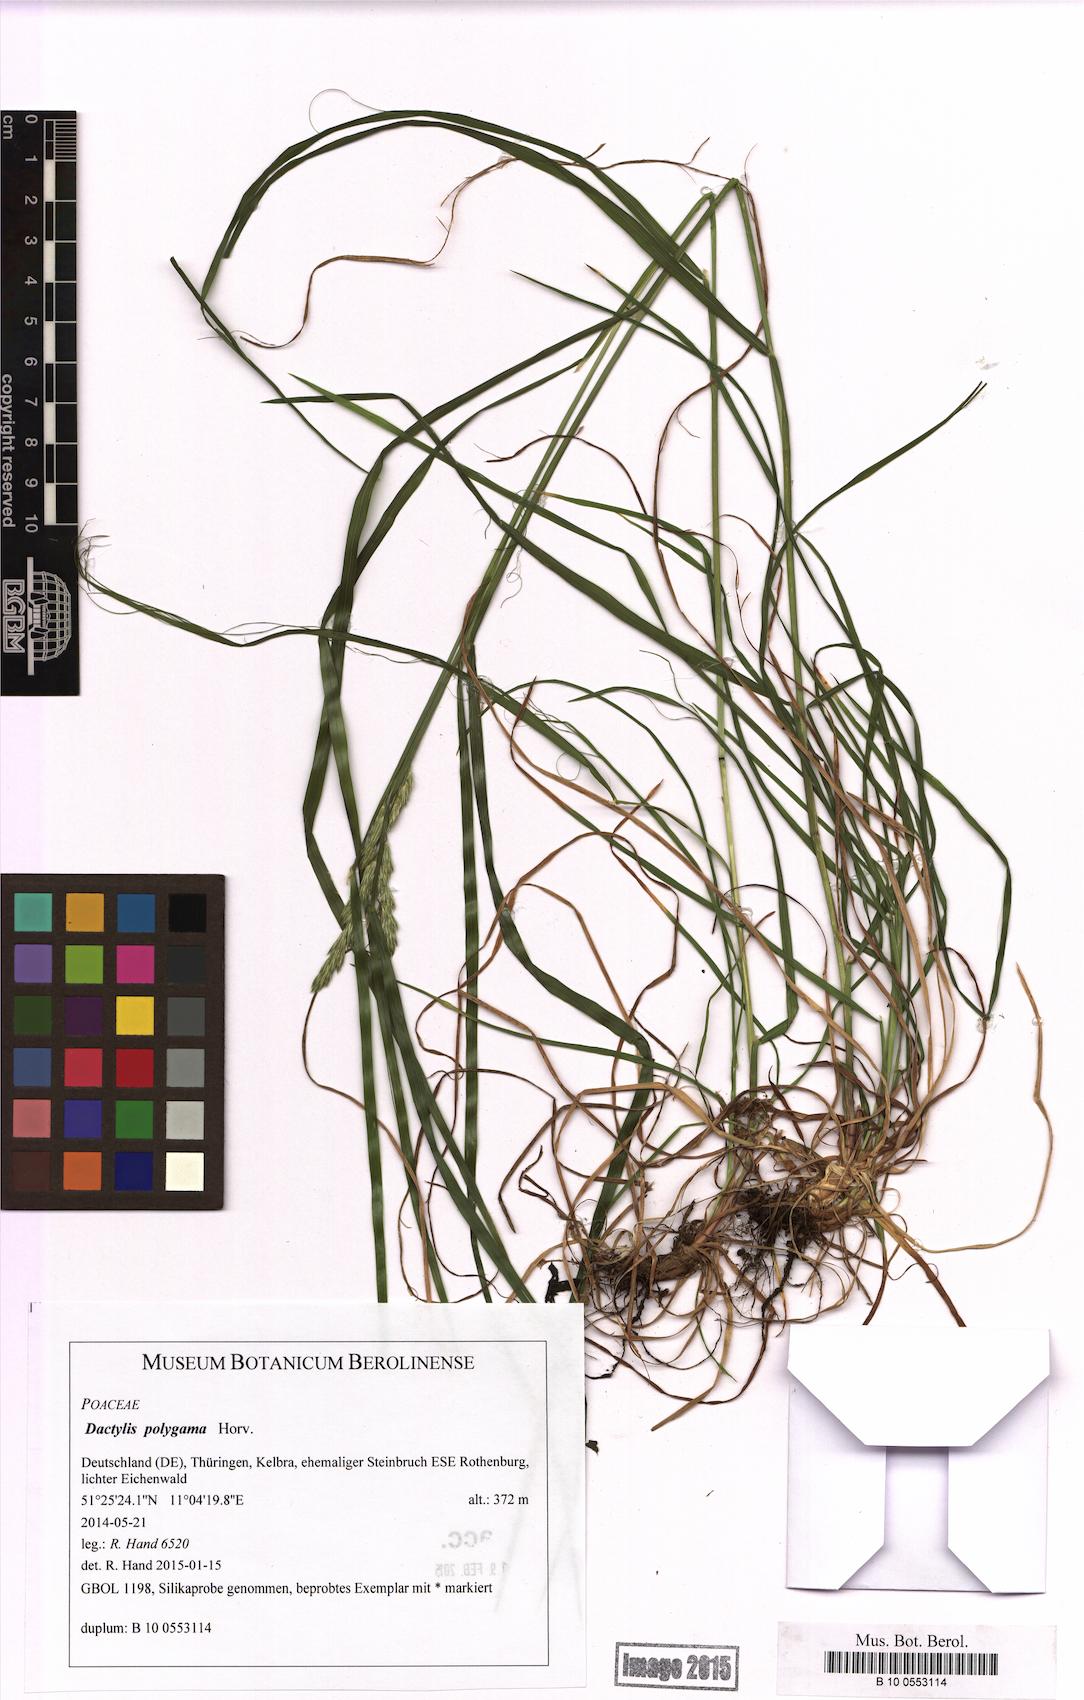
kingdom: Plantae
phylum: Tracheophyta
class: Liliopsida
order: Poales
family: Poaceae
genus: Dactylis
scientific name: Dactylis glomerata
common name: Orchardgrass
